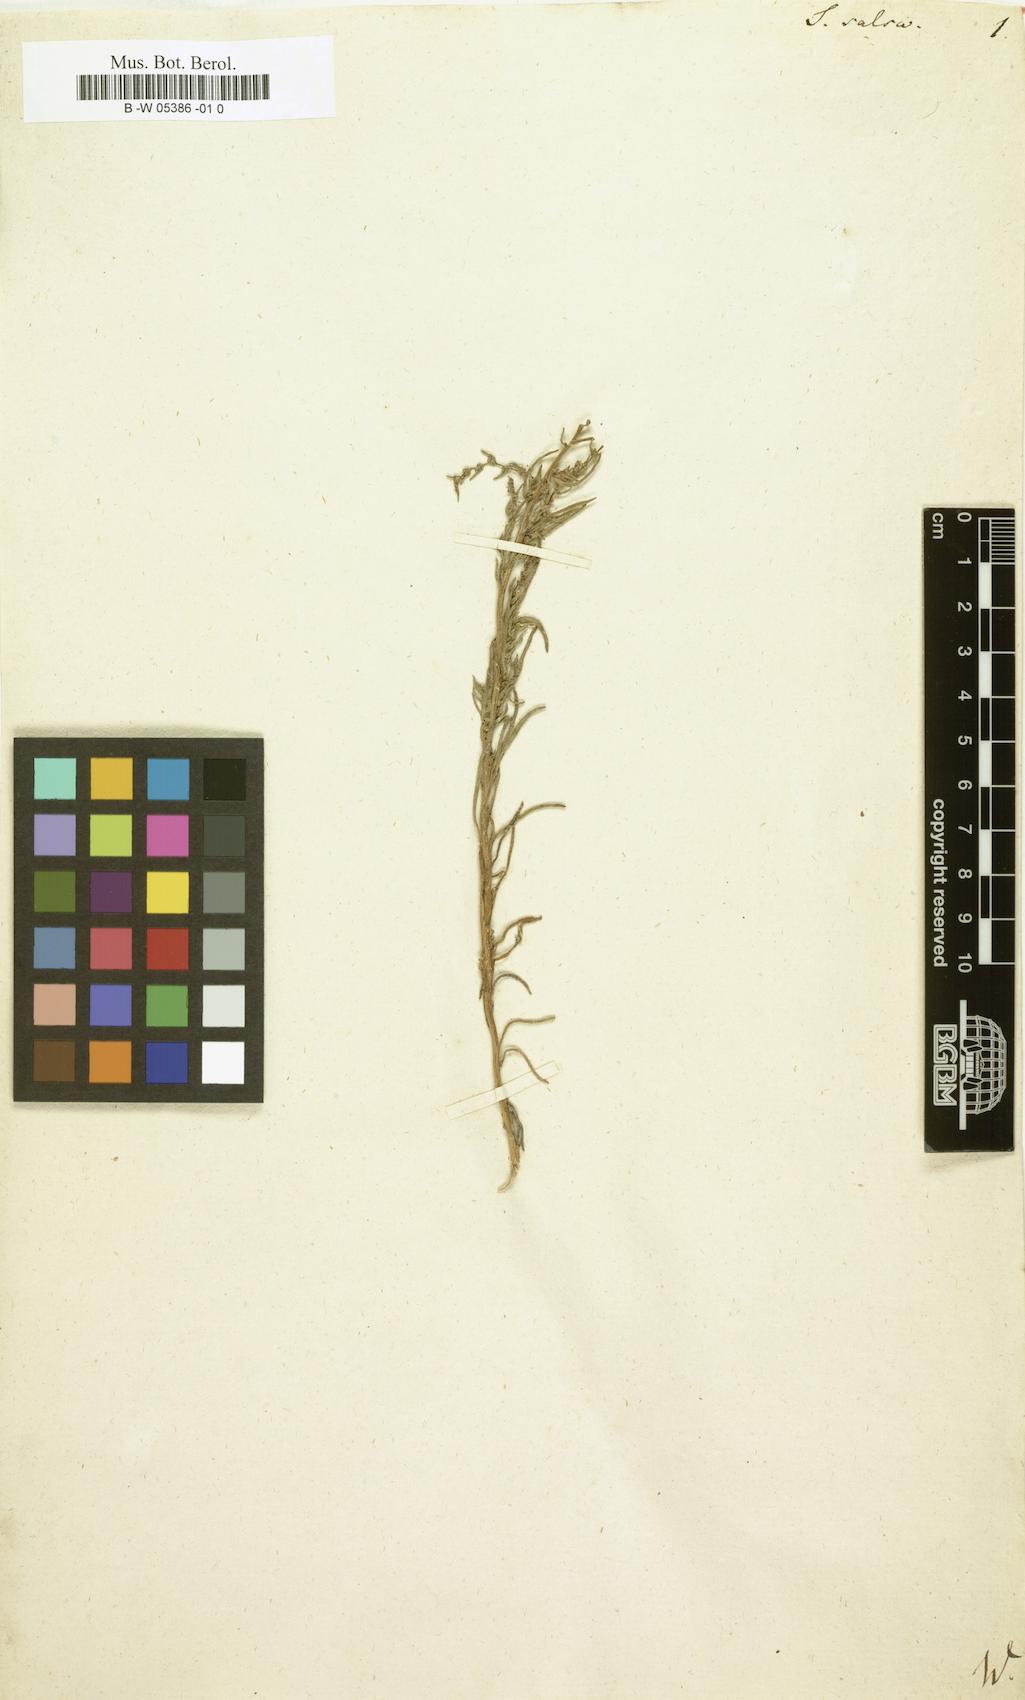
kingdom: Plantae
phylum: Tracheophyta
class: Magnoliopsida
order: Caryophyllales
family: Amaranthaceae
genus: Suaeda
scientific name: Suaeda
